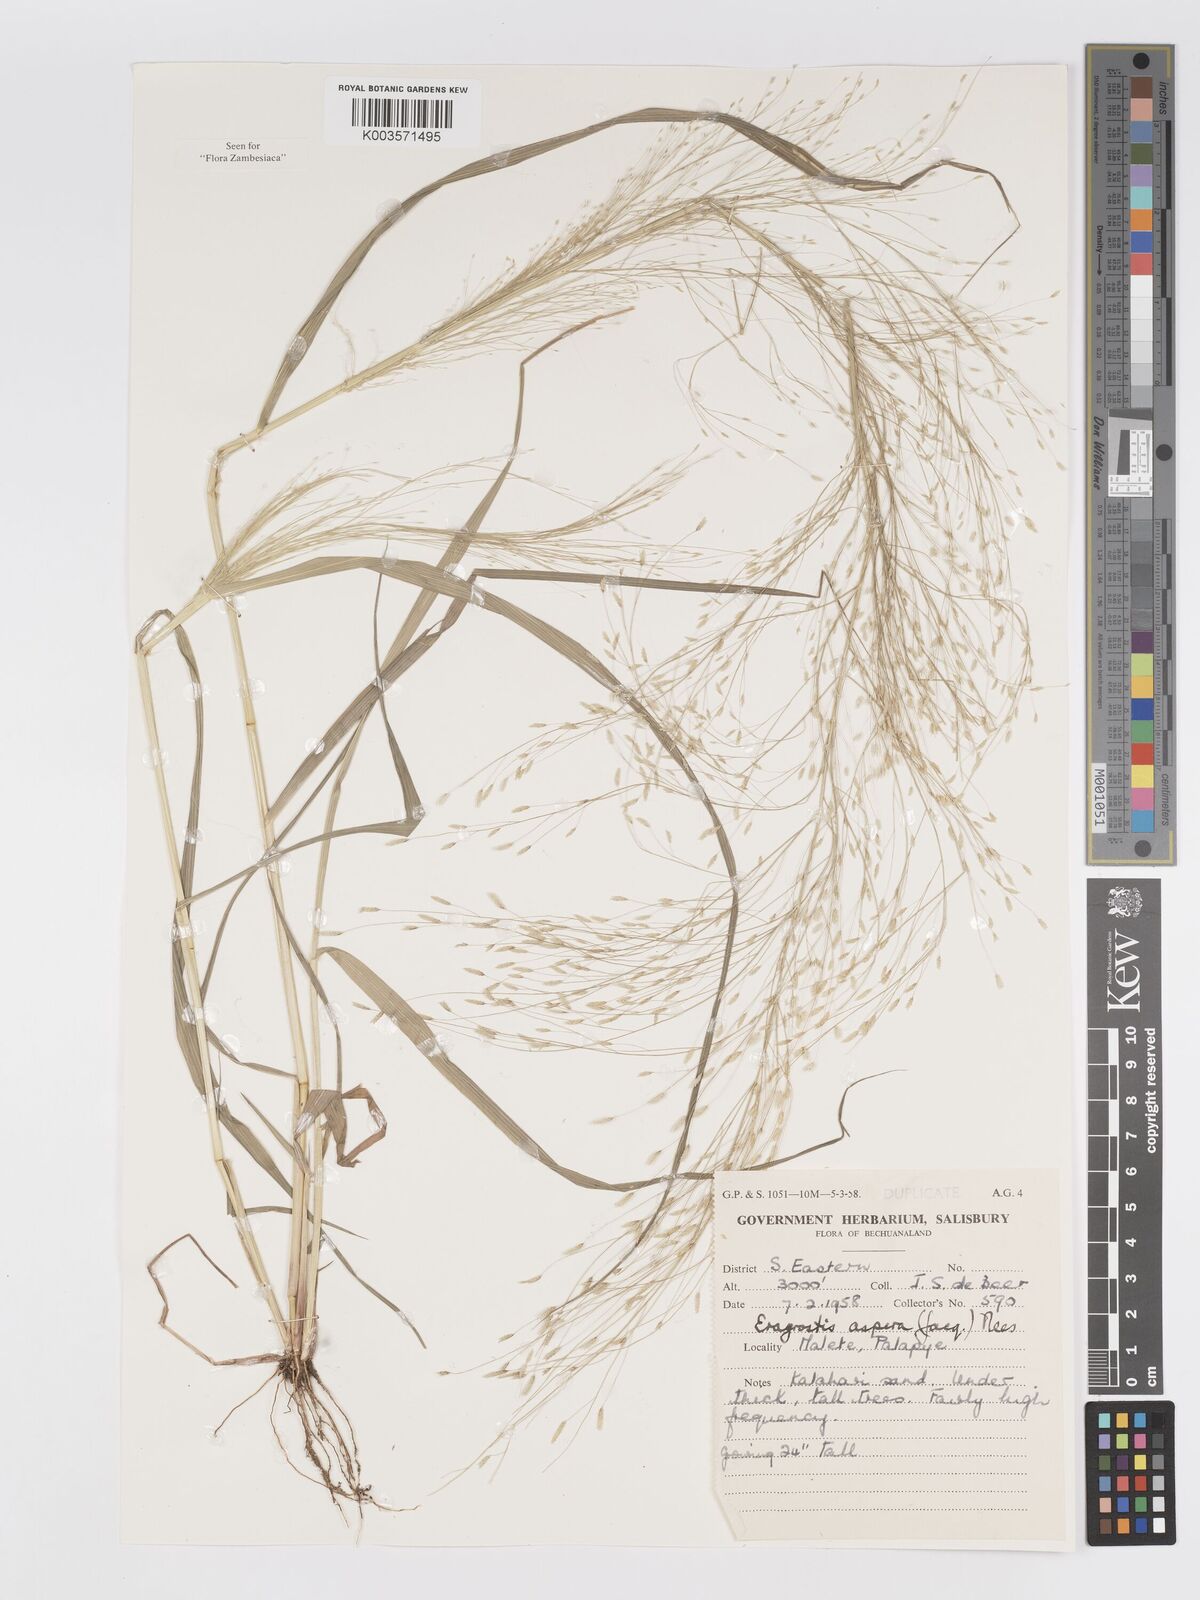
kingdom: Plantae
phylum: Tracheophyta
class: Liliopsida
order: Poales
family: Poaceae
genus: Eragrostis
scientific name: Eragrostis aspera
